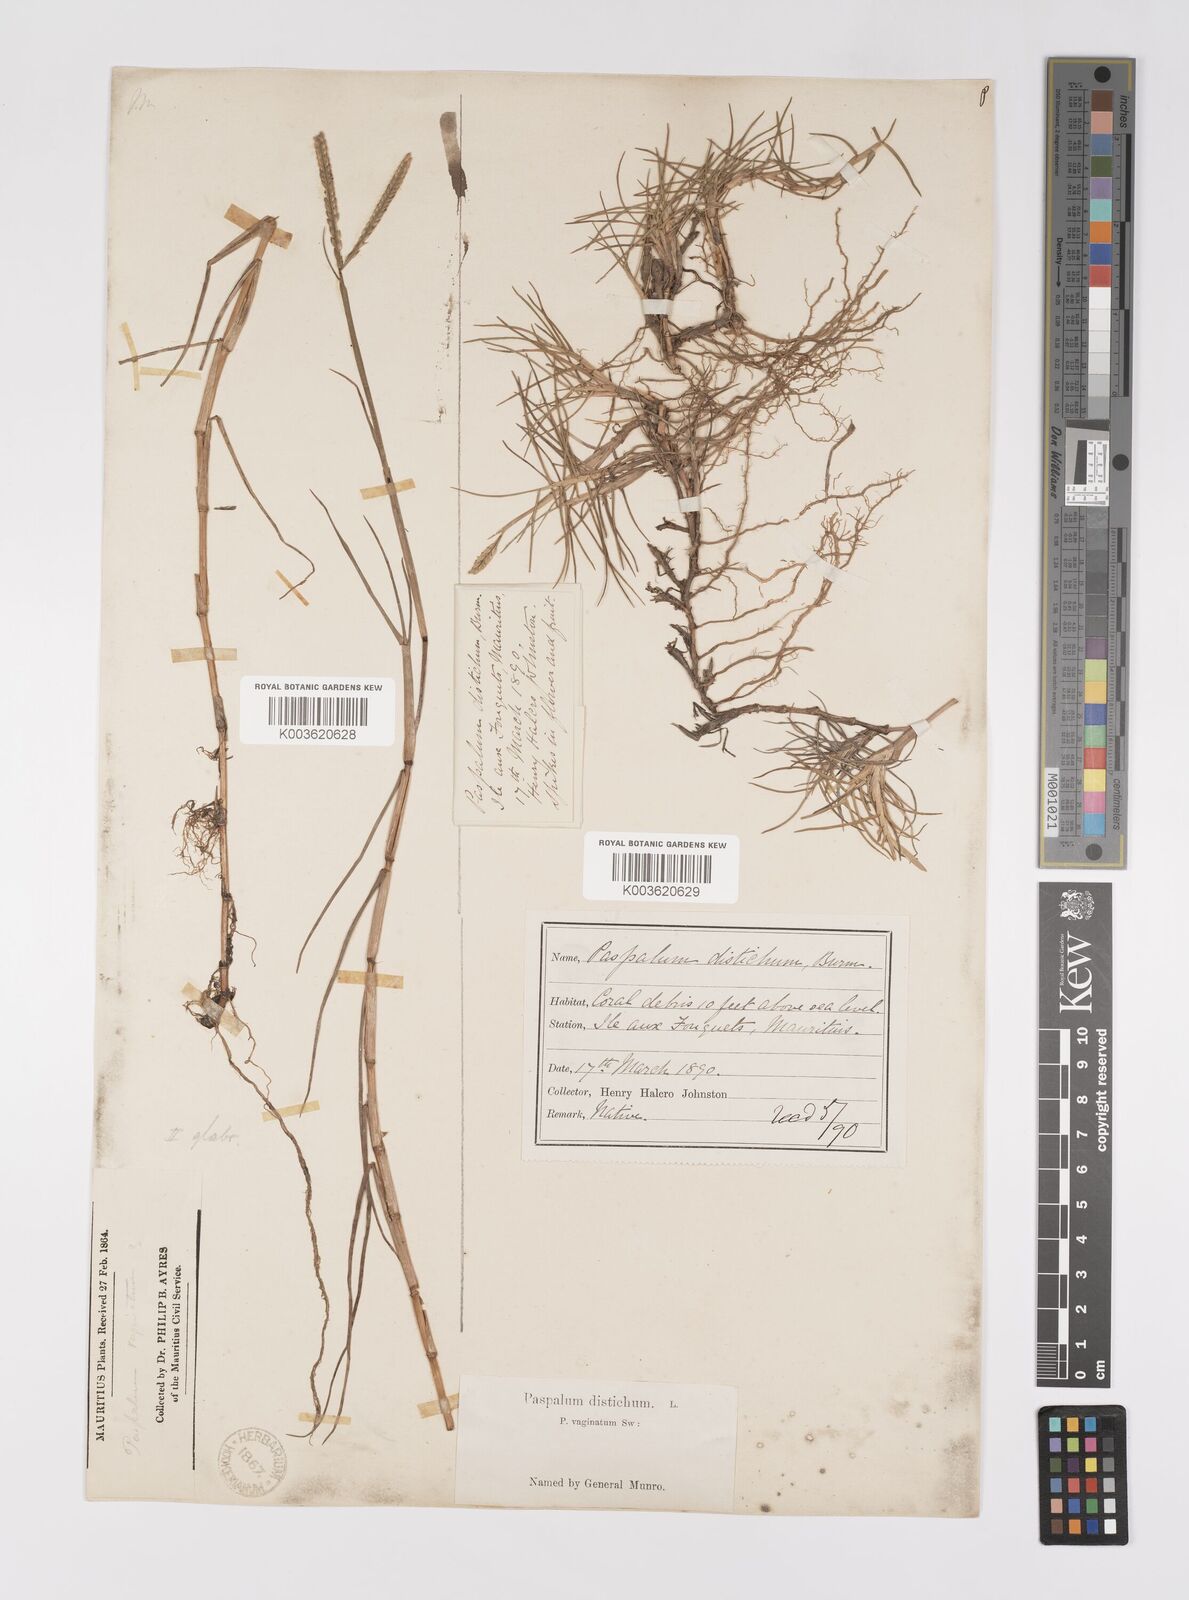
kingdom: Plantae
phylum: Tracheophyta
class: Liliopsida
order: Poales
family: Poaceae
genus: Paspalum
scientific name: Paspalum vaginatum
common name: Seashore paspalum
